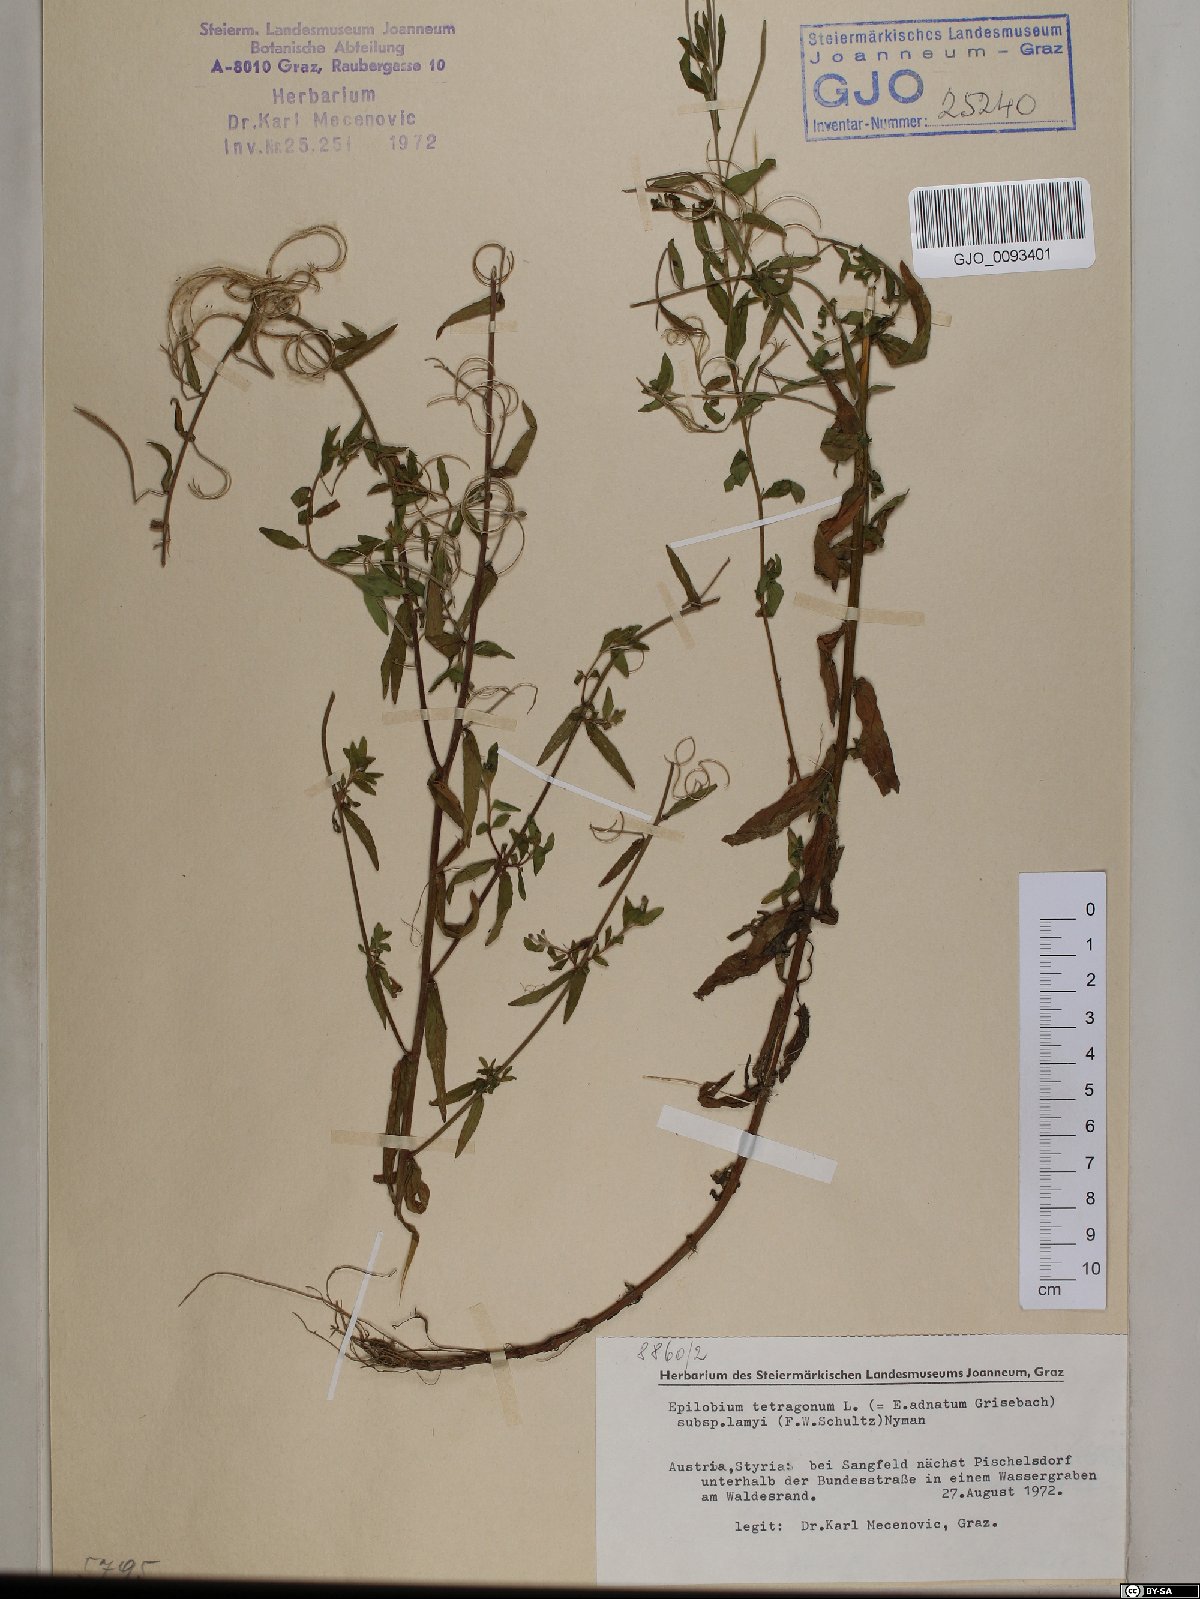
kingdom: Plantae
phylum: Tracheophyta
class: Magnoliopsida
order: Myrtales
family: Onagraceae
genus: Epilobium
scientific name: Epilobium lamyi
